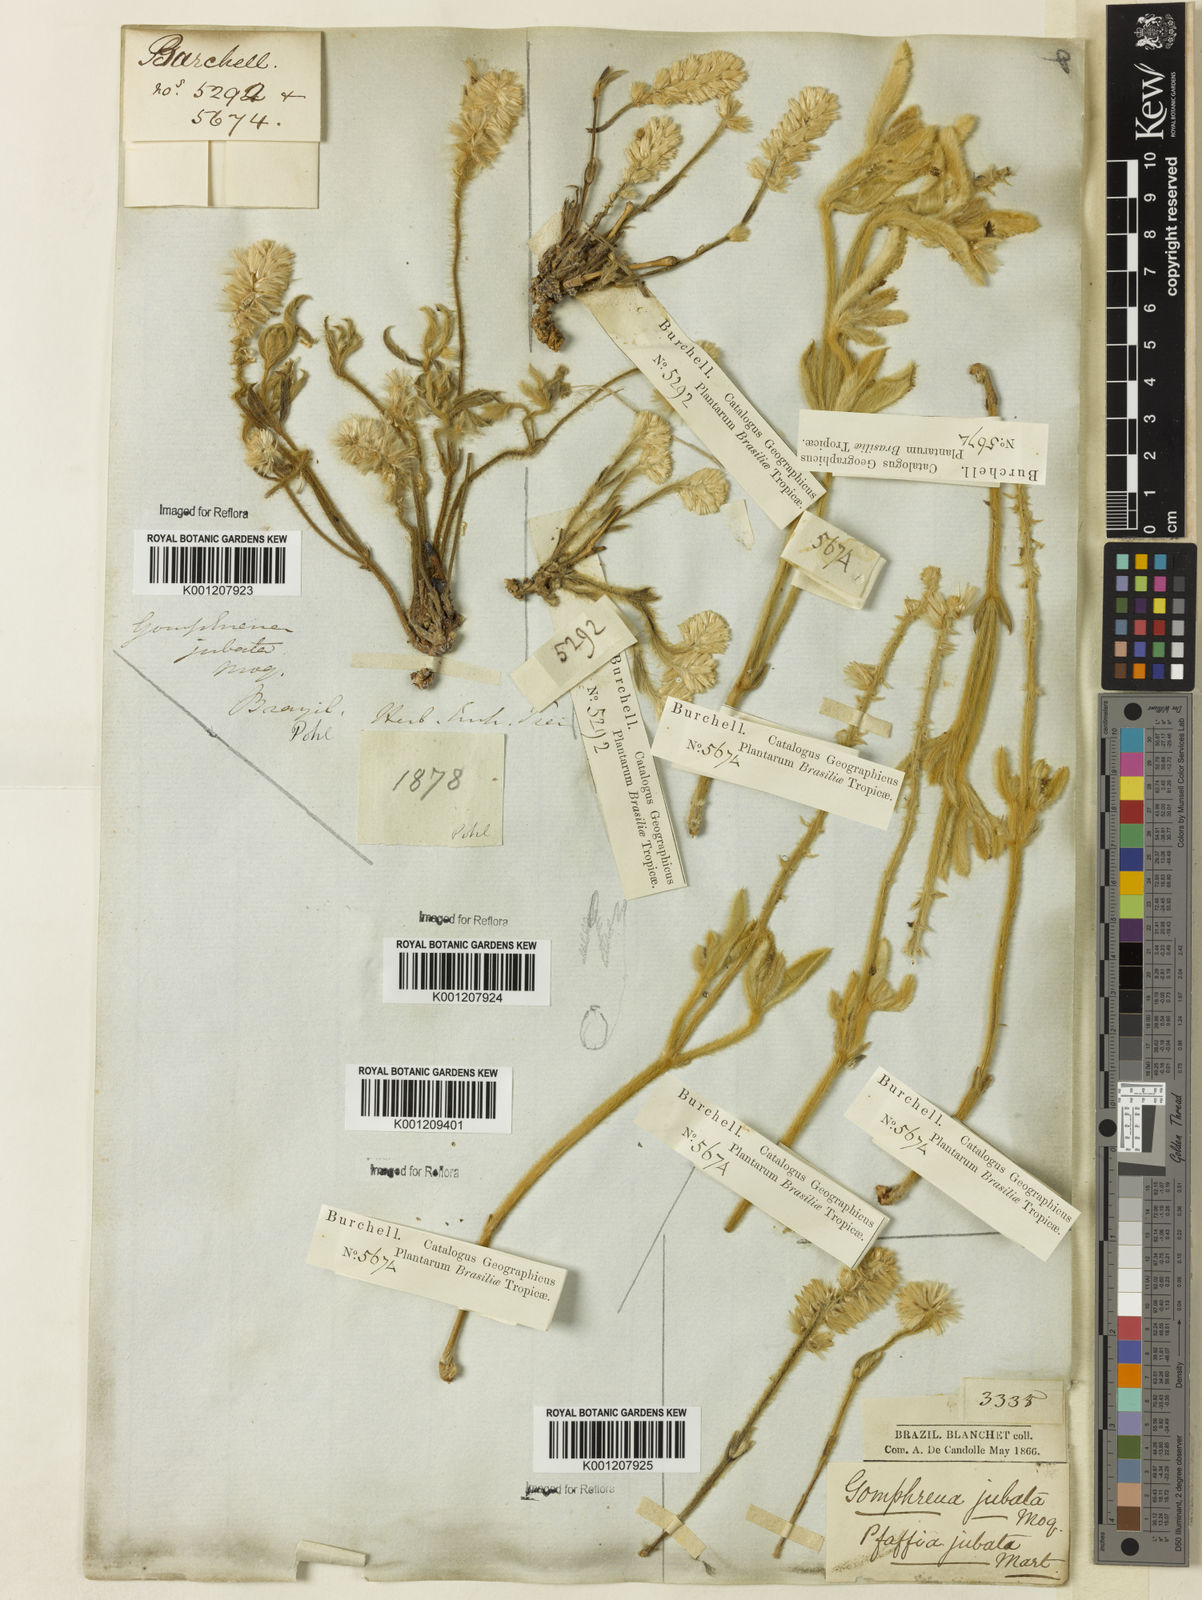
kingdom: Plantae
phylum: Tracheophyta
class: Magnoliopsida
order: Caryophyllales
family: Amaranthaceae
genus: Pfaffia
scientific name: Pfaffia jubata
